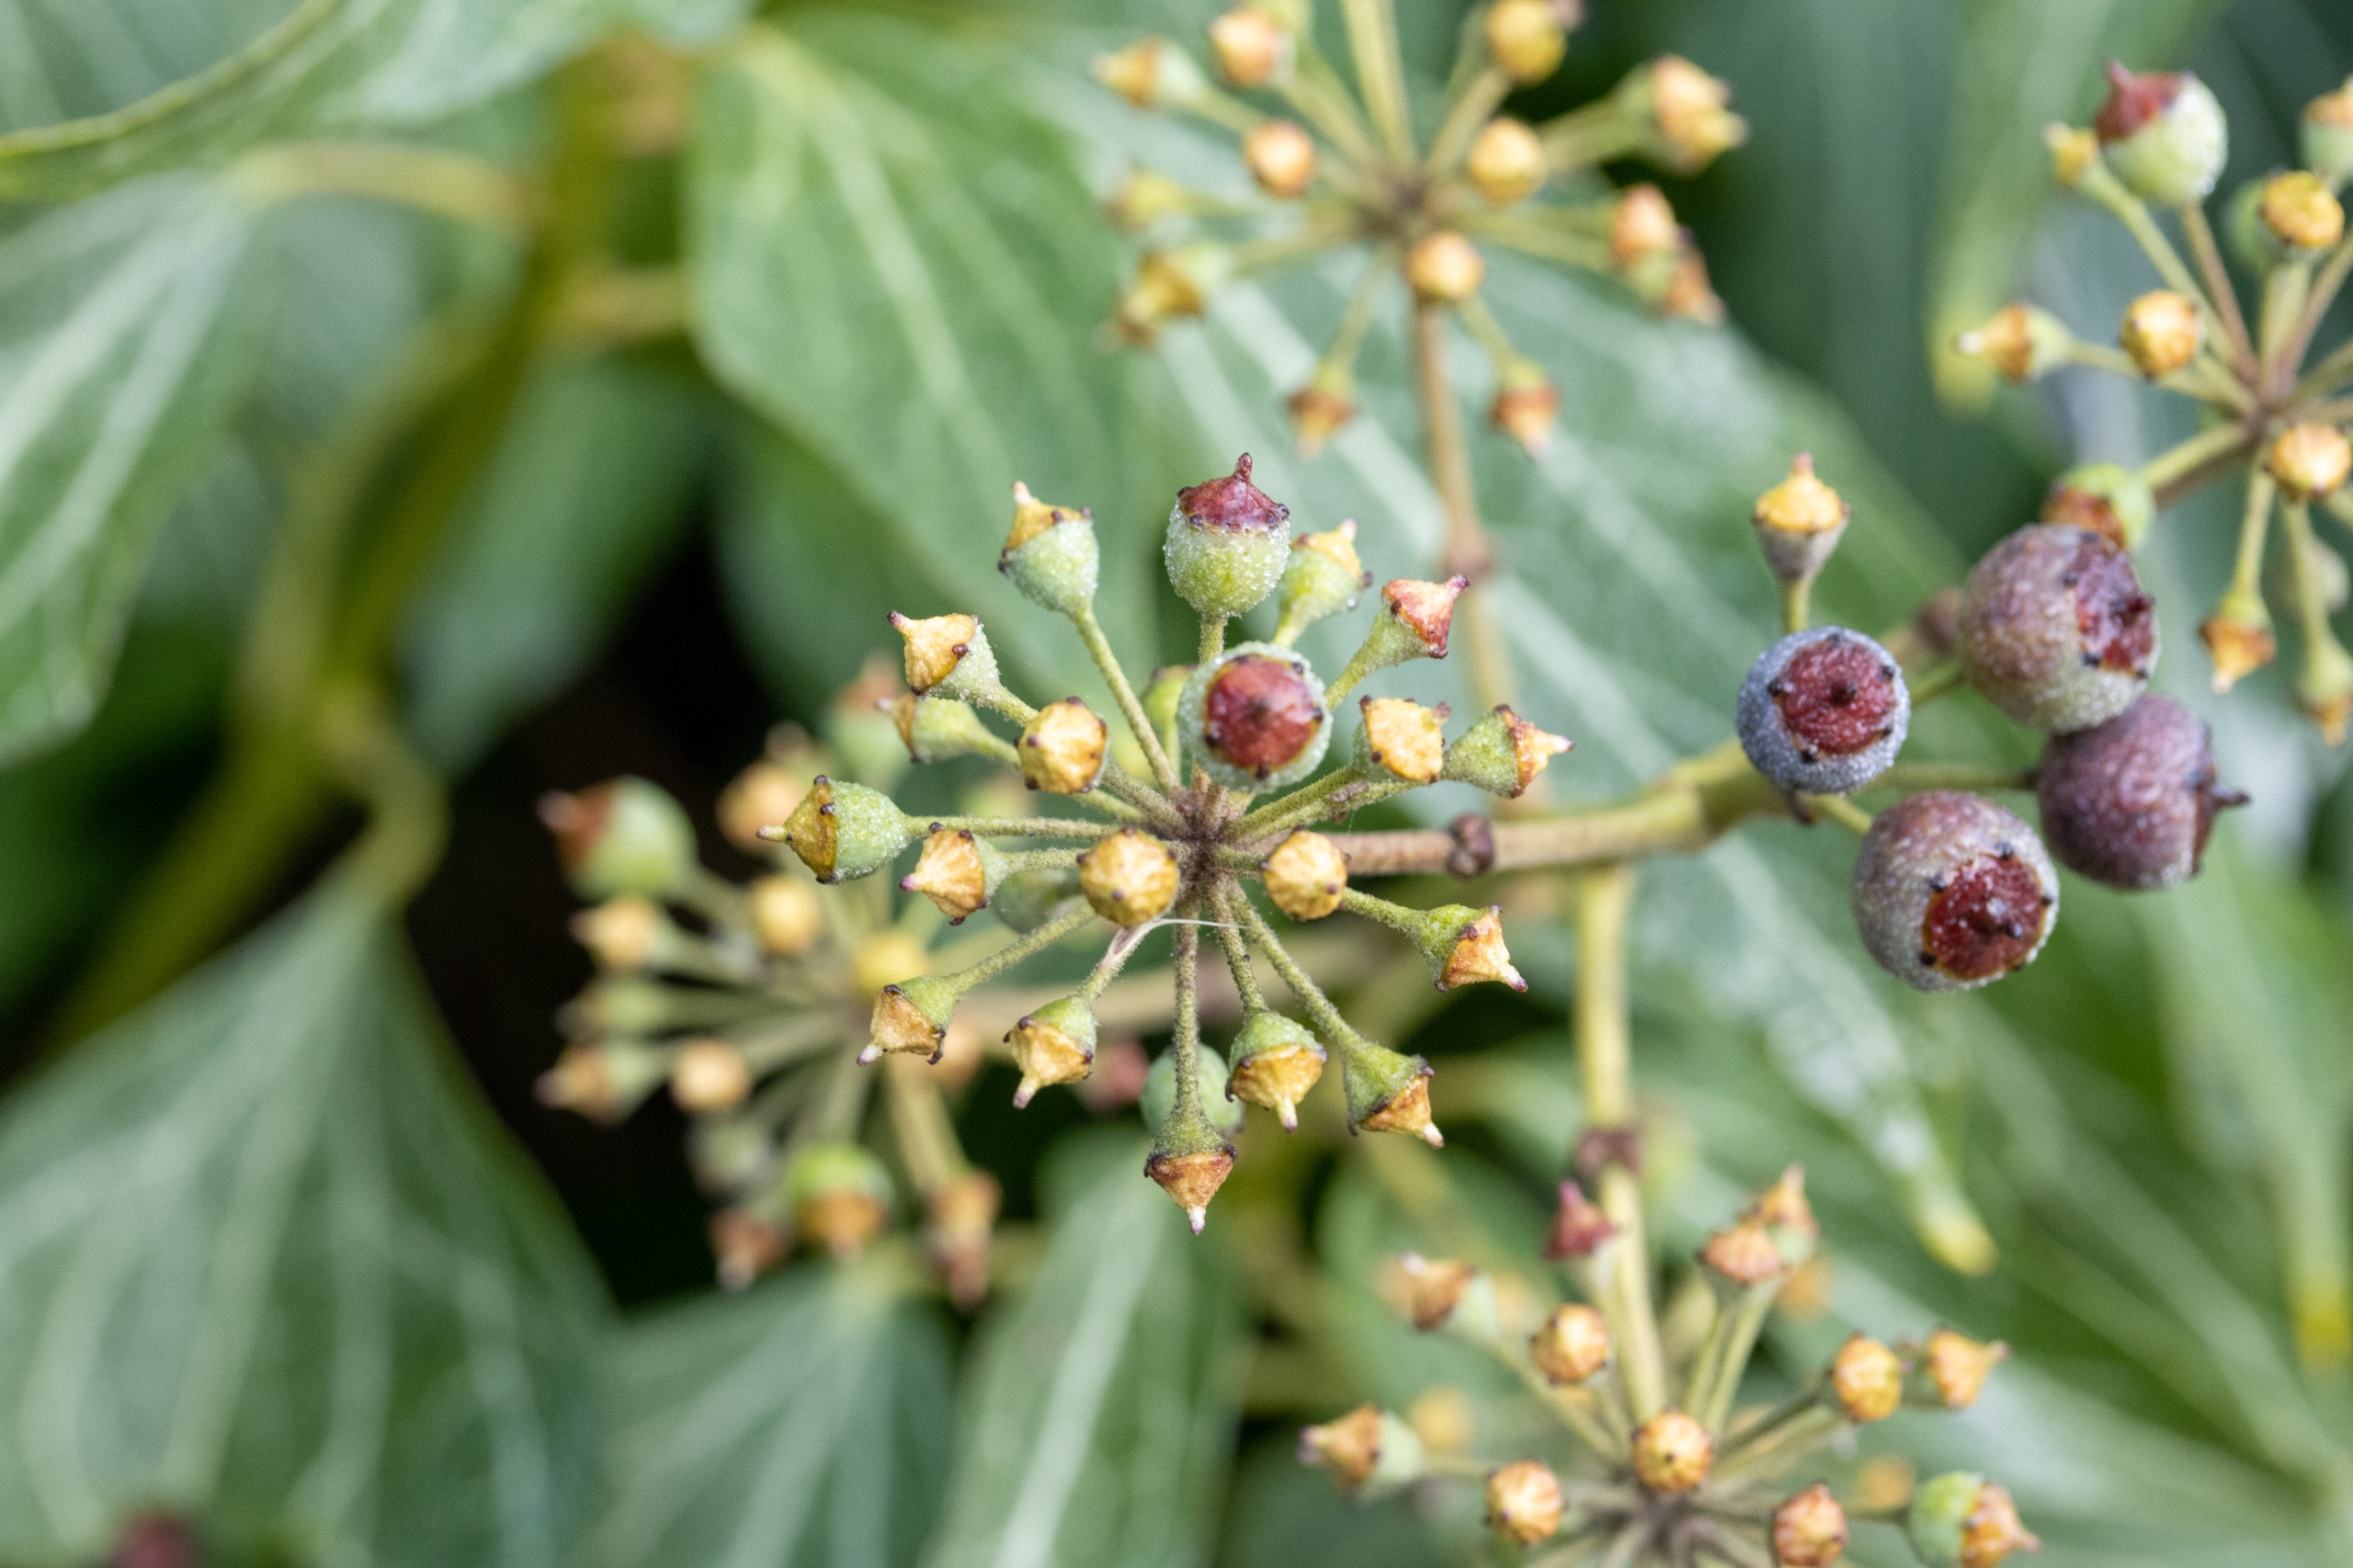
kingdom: Plantae
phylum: Tracheophyta
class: Magnoliopsida
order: Apiales
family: Araliaceae
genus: Hedera
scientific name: Hedera helix
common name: Vedbend
